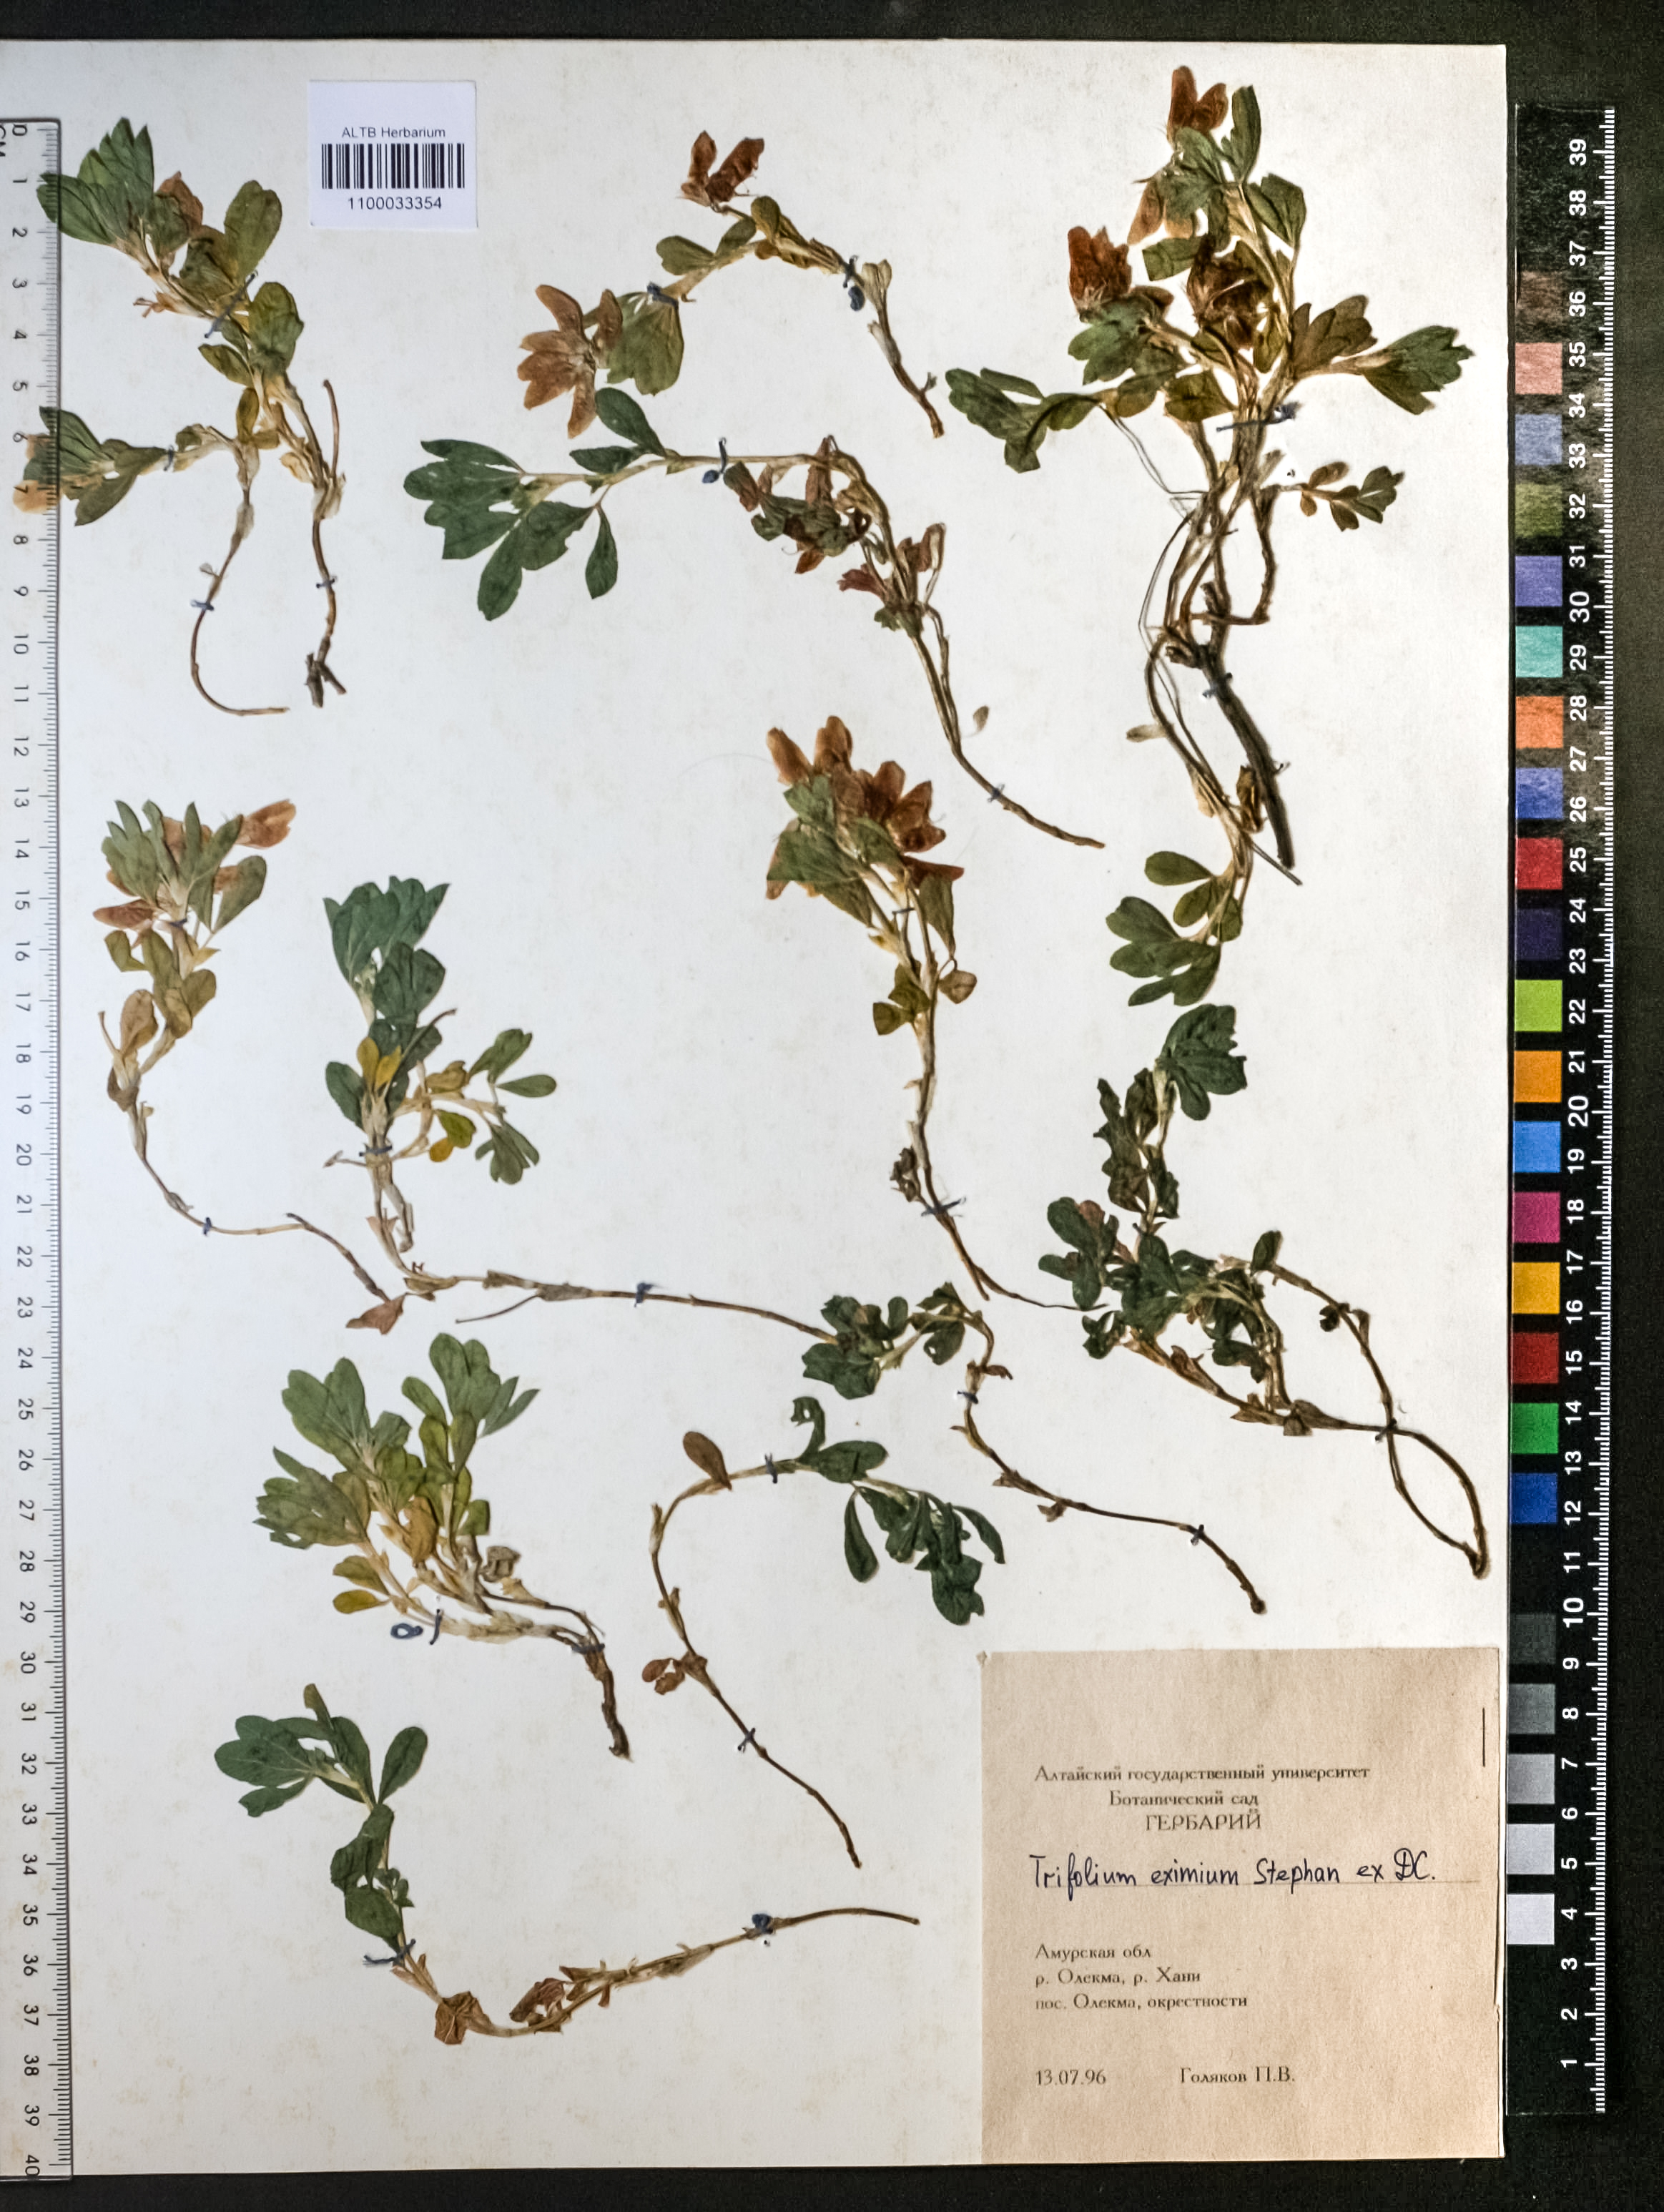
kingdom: Plantae
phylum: Tracheophyta
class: Magnoliopsida
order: Fabales
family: Fabaceae
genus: Trifolium
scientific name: Trifolium eximium
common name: Excellent clover
